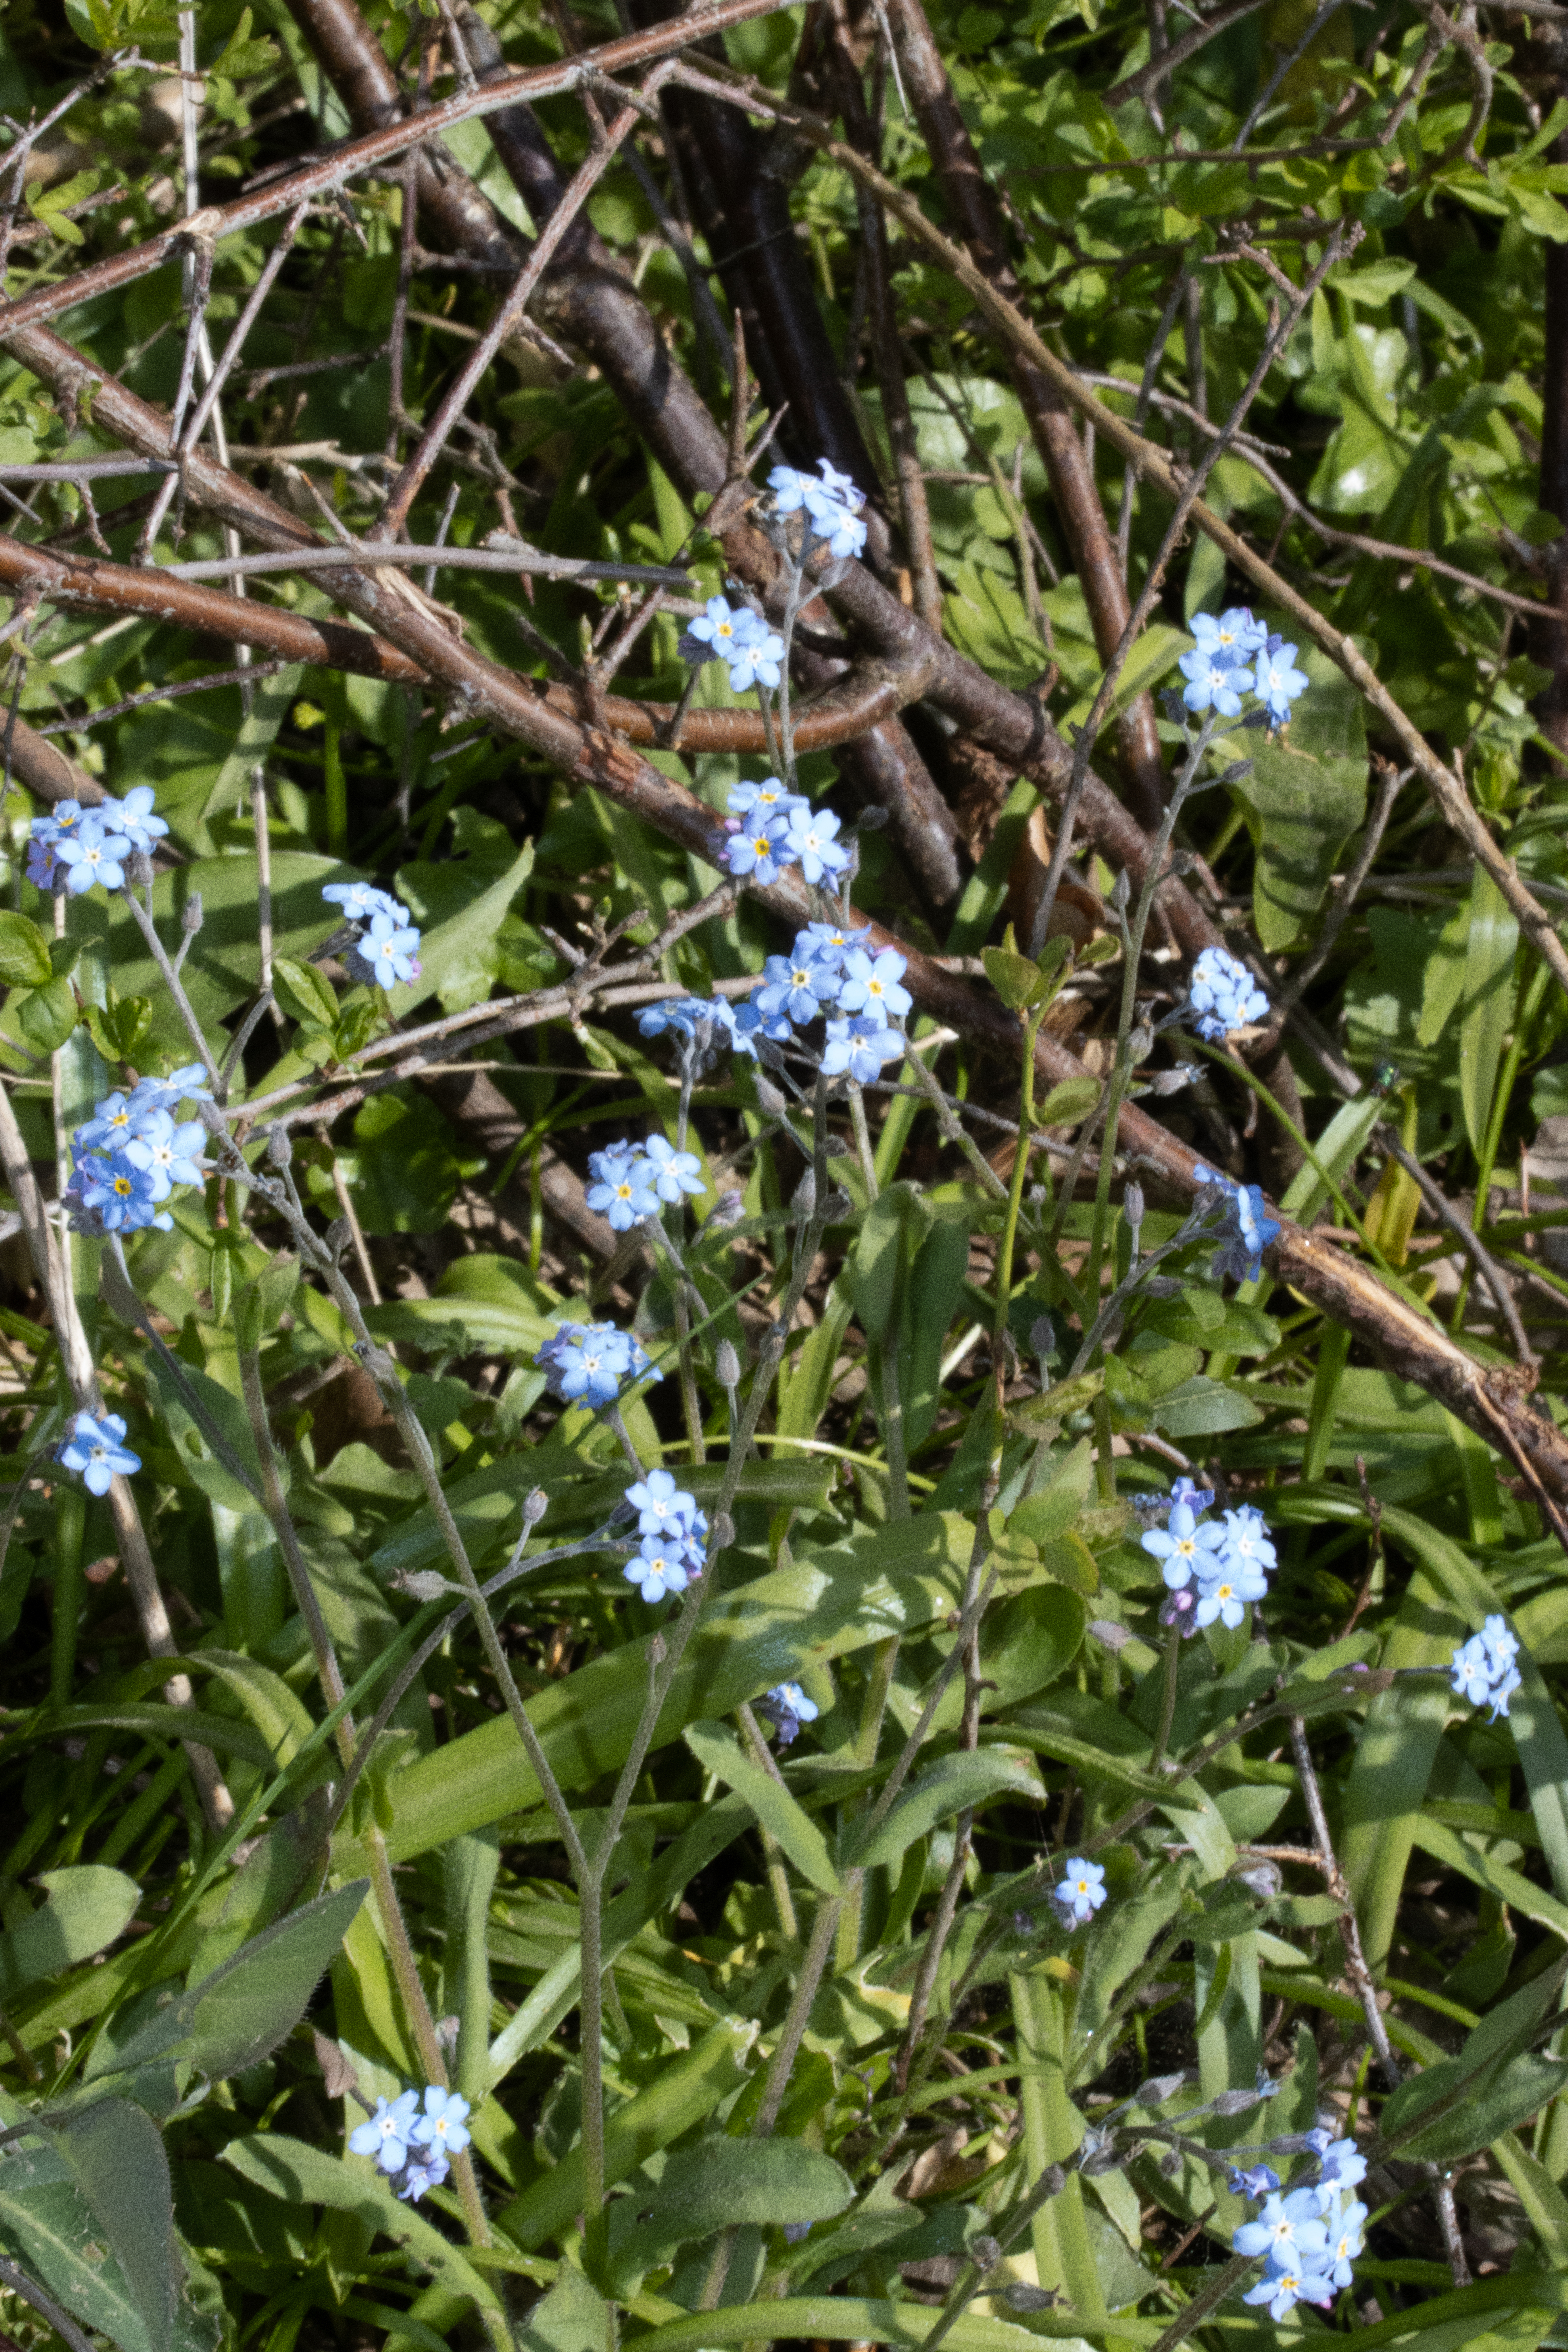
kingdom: Plantae
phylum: Tracheophyta
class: Magnoliopsida
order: Boraginales
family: Boraginaceae
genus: Myosotis
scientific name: Myosotis sylvatica
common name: Skov-forglemmigej
